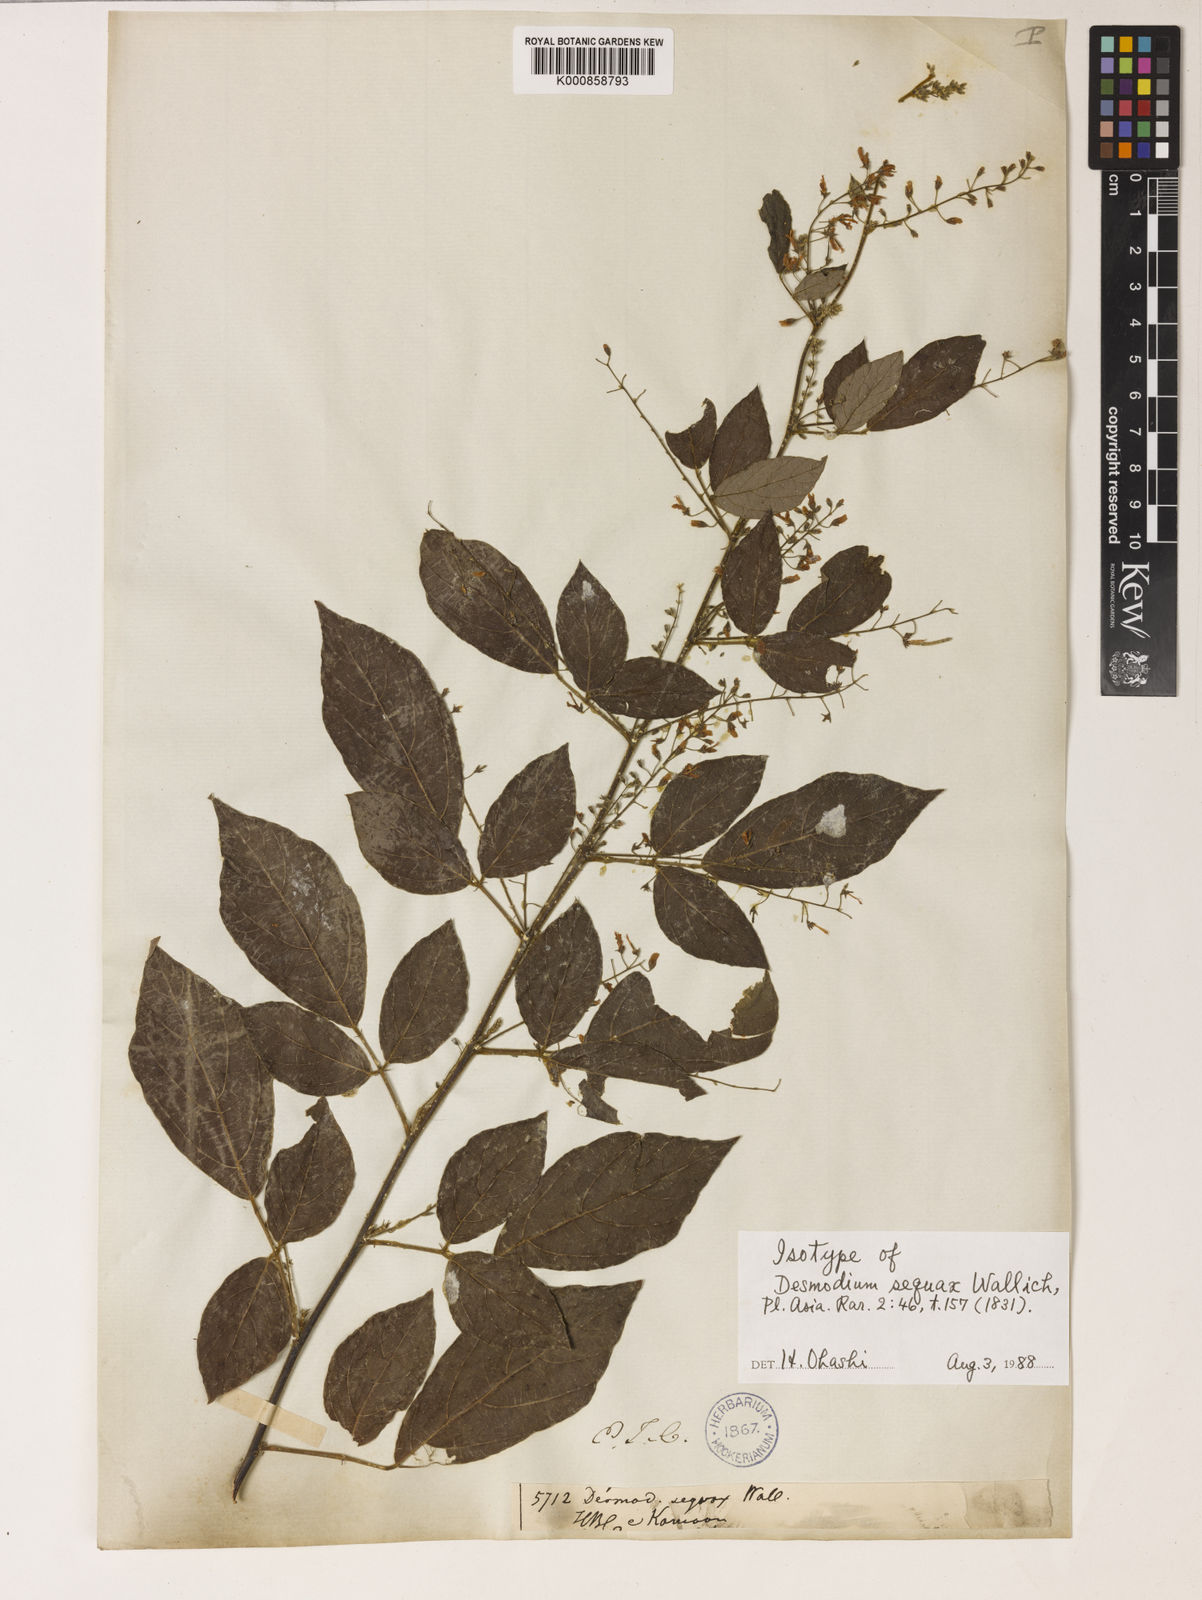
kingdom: Plantae
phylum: Tracheophyta
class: Magnoliopsida
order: Fabales
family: Fabaceae
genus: Puhuaea
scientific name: Puhuaea sequax
